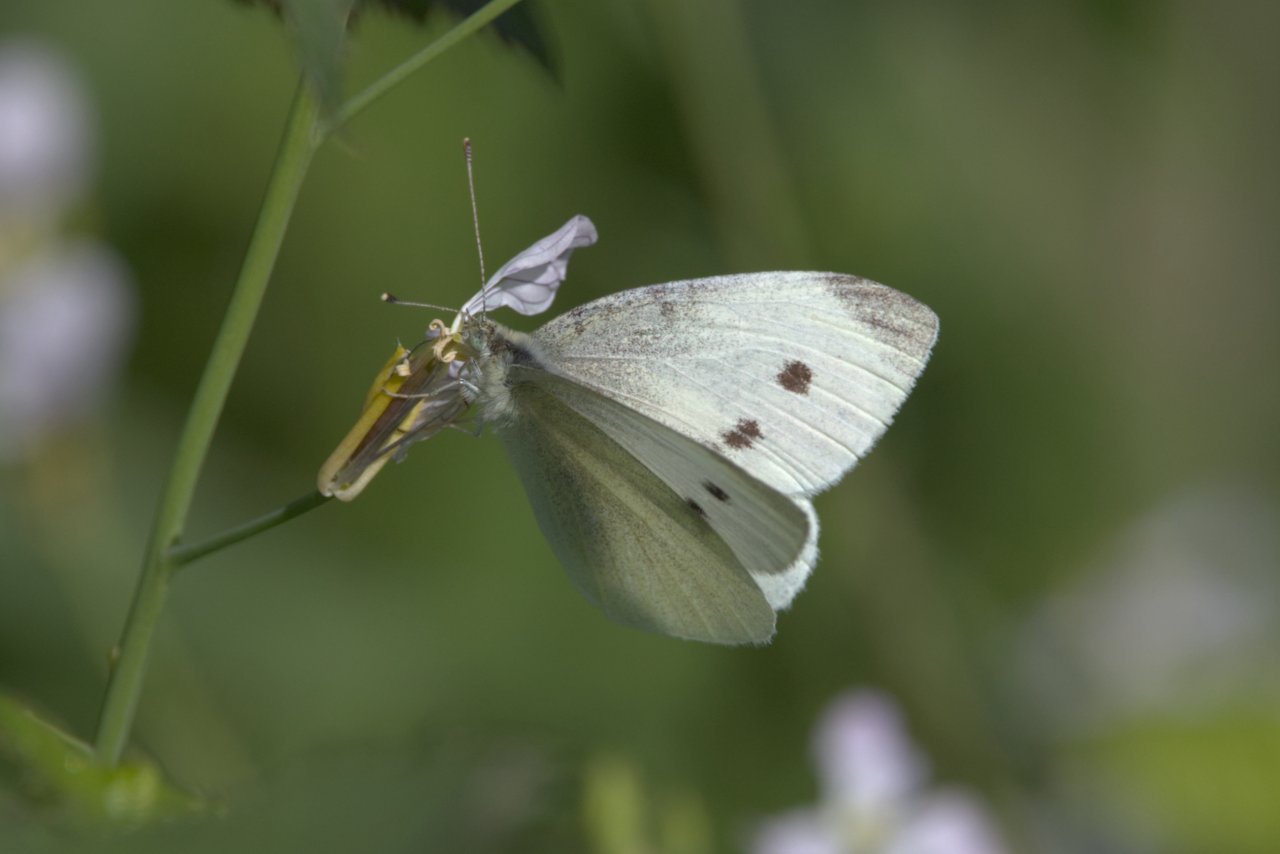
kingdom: Animalia
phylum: Arthropoda
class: Insecta
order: Lepidoptera
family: Pieridae
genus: Pieris
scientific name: Pieris rapae
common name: Cabbage White
